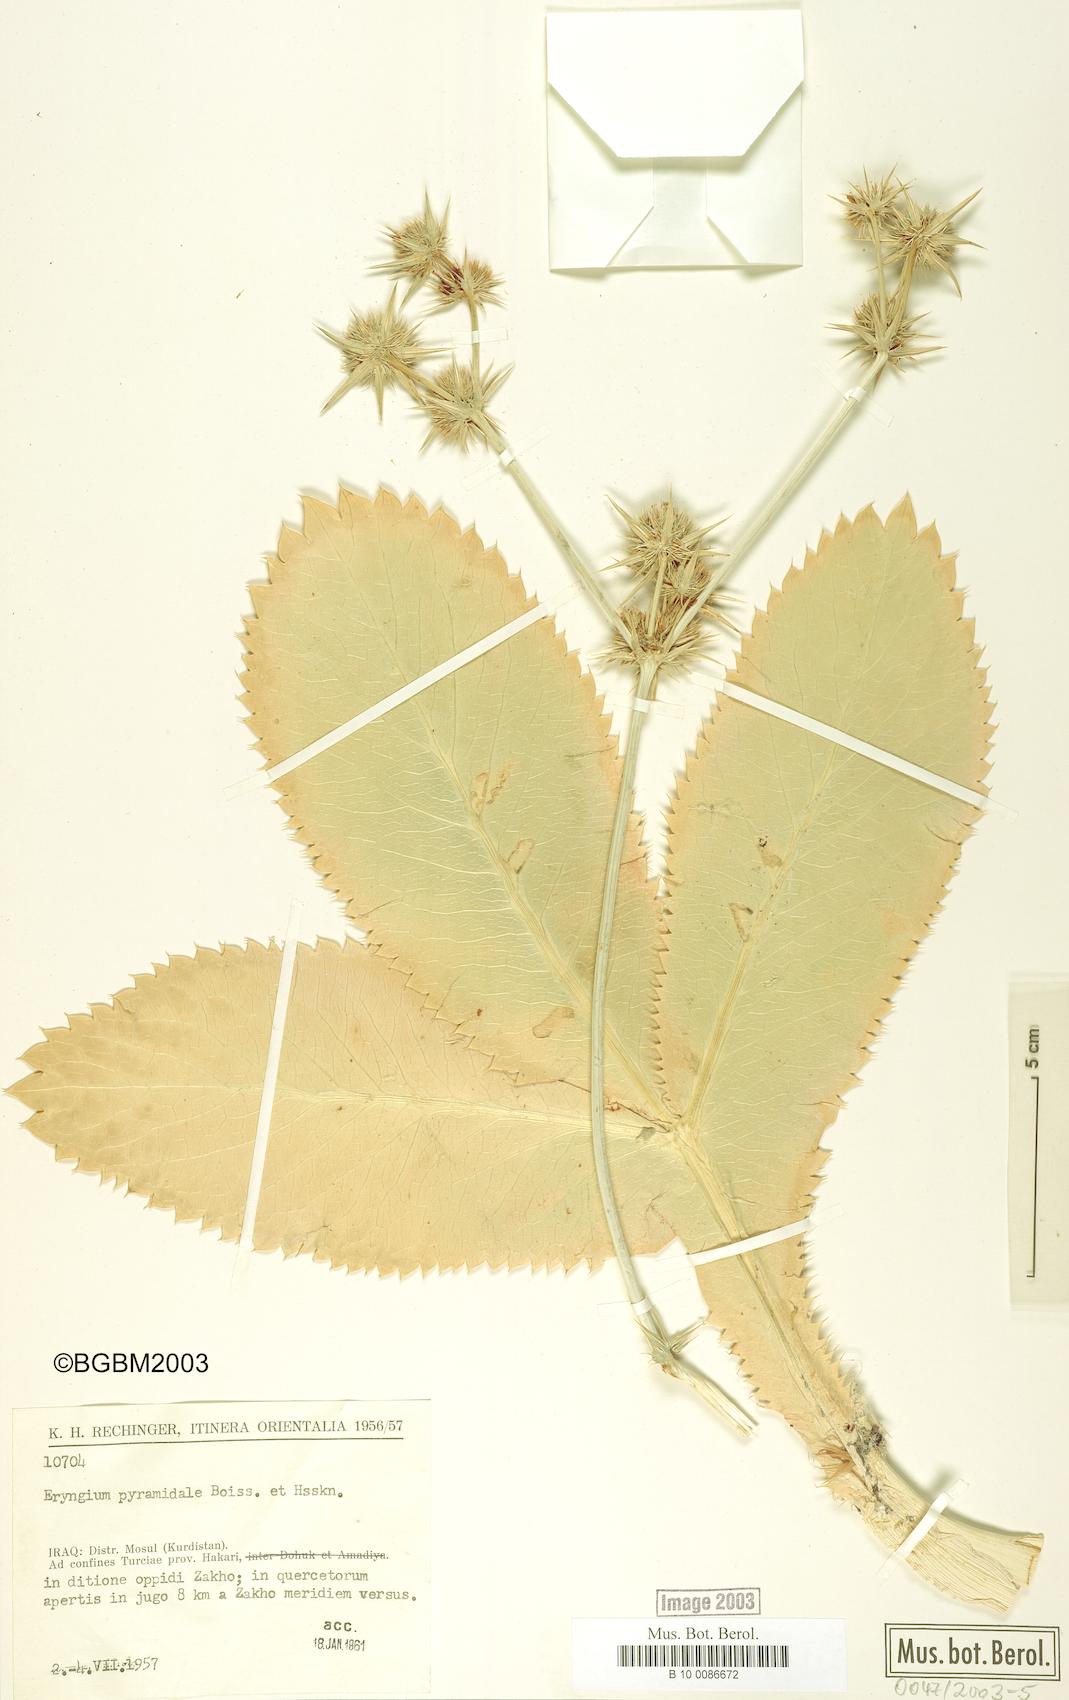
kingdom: Plantae
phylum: Tracheophyta
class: Magnoliopsida
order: Apiales
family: Apiaceae
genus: Eryngium
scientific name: Eryngium pyramidale
